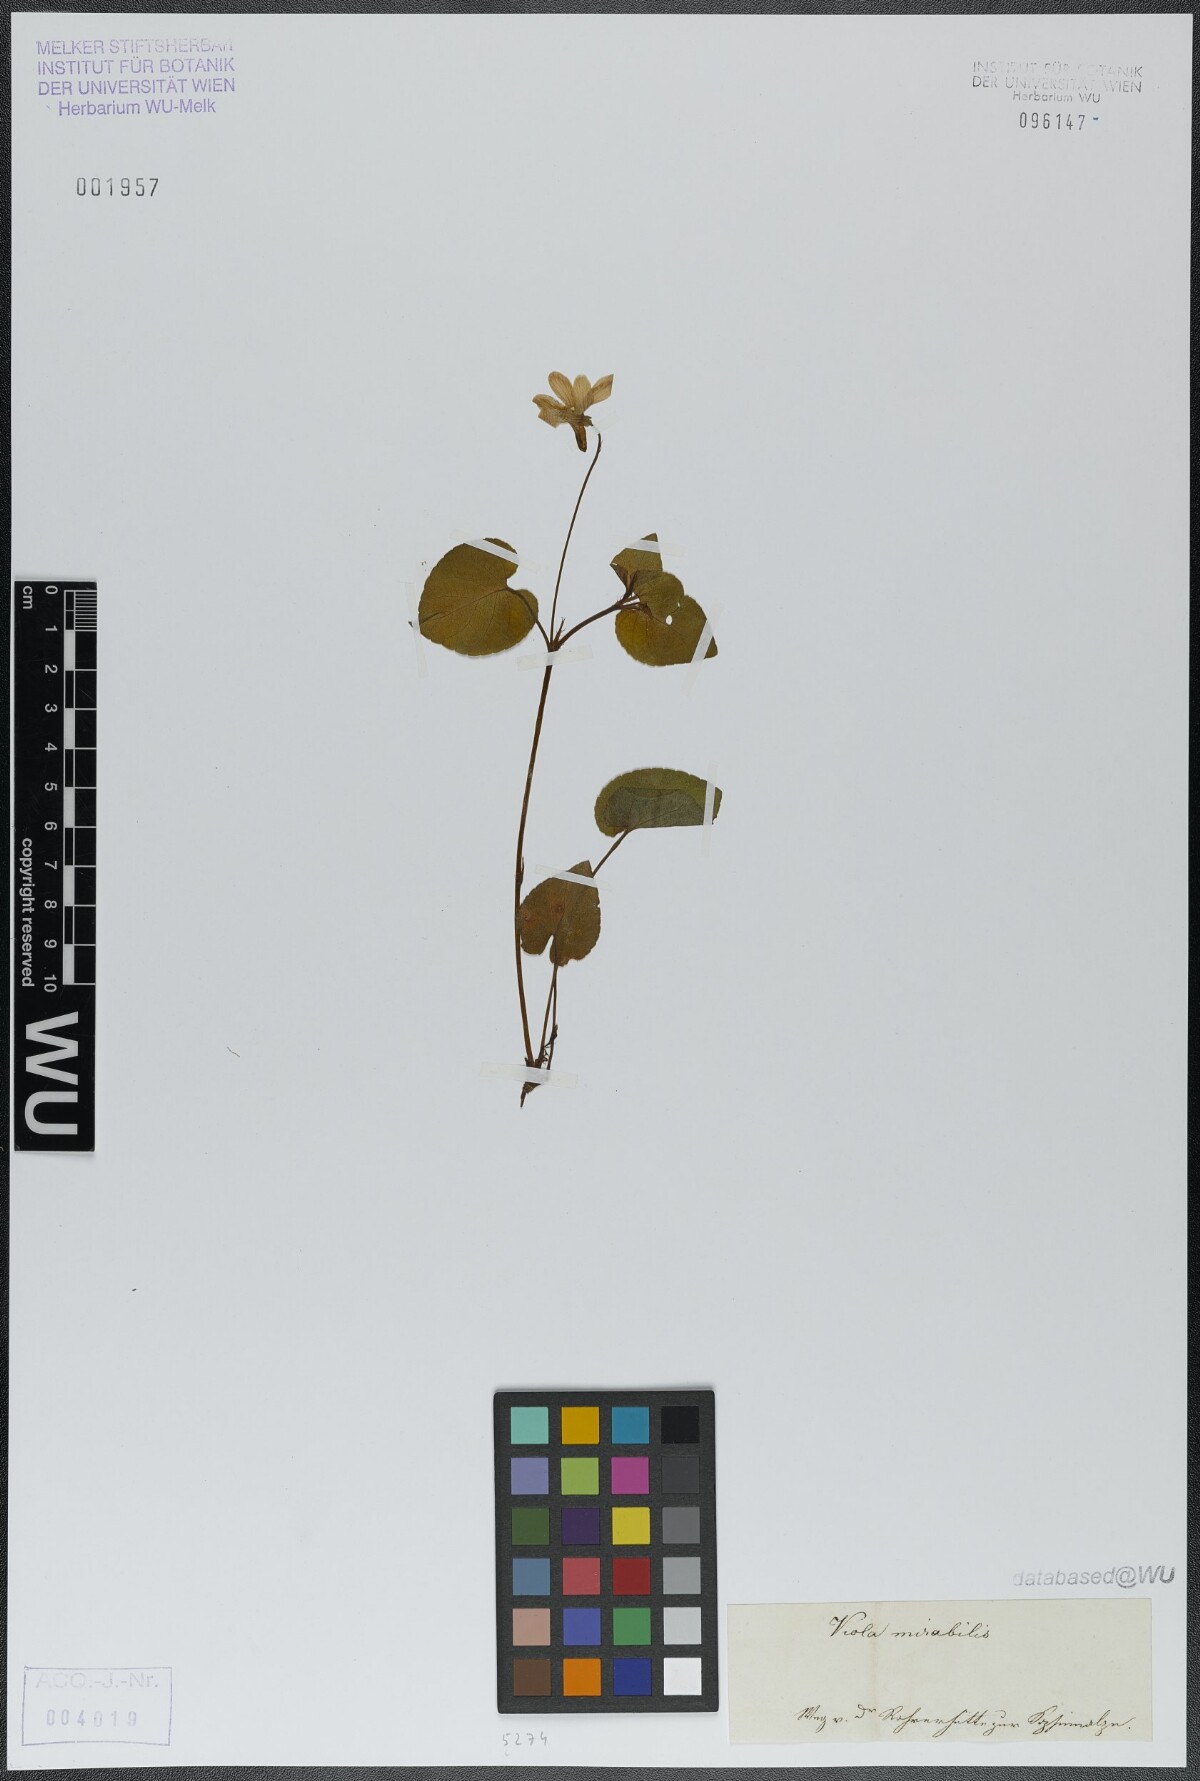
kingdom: Plantae
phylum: Tracheophyta
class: Magnoliopsida
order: Malpighiales
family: Violaceae
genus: Viola
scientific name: Viola mirabilis
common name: Wonder violet
